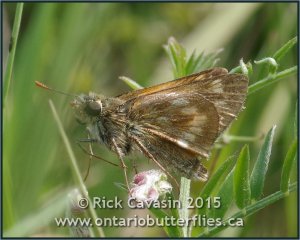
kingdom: Animalia
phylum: Arthropoda
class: Insecta
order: Lepidoptera
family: Hesperiidae
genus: Polites
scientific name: Polites
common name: Long Dash Skipper
